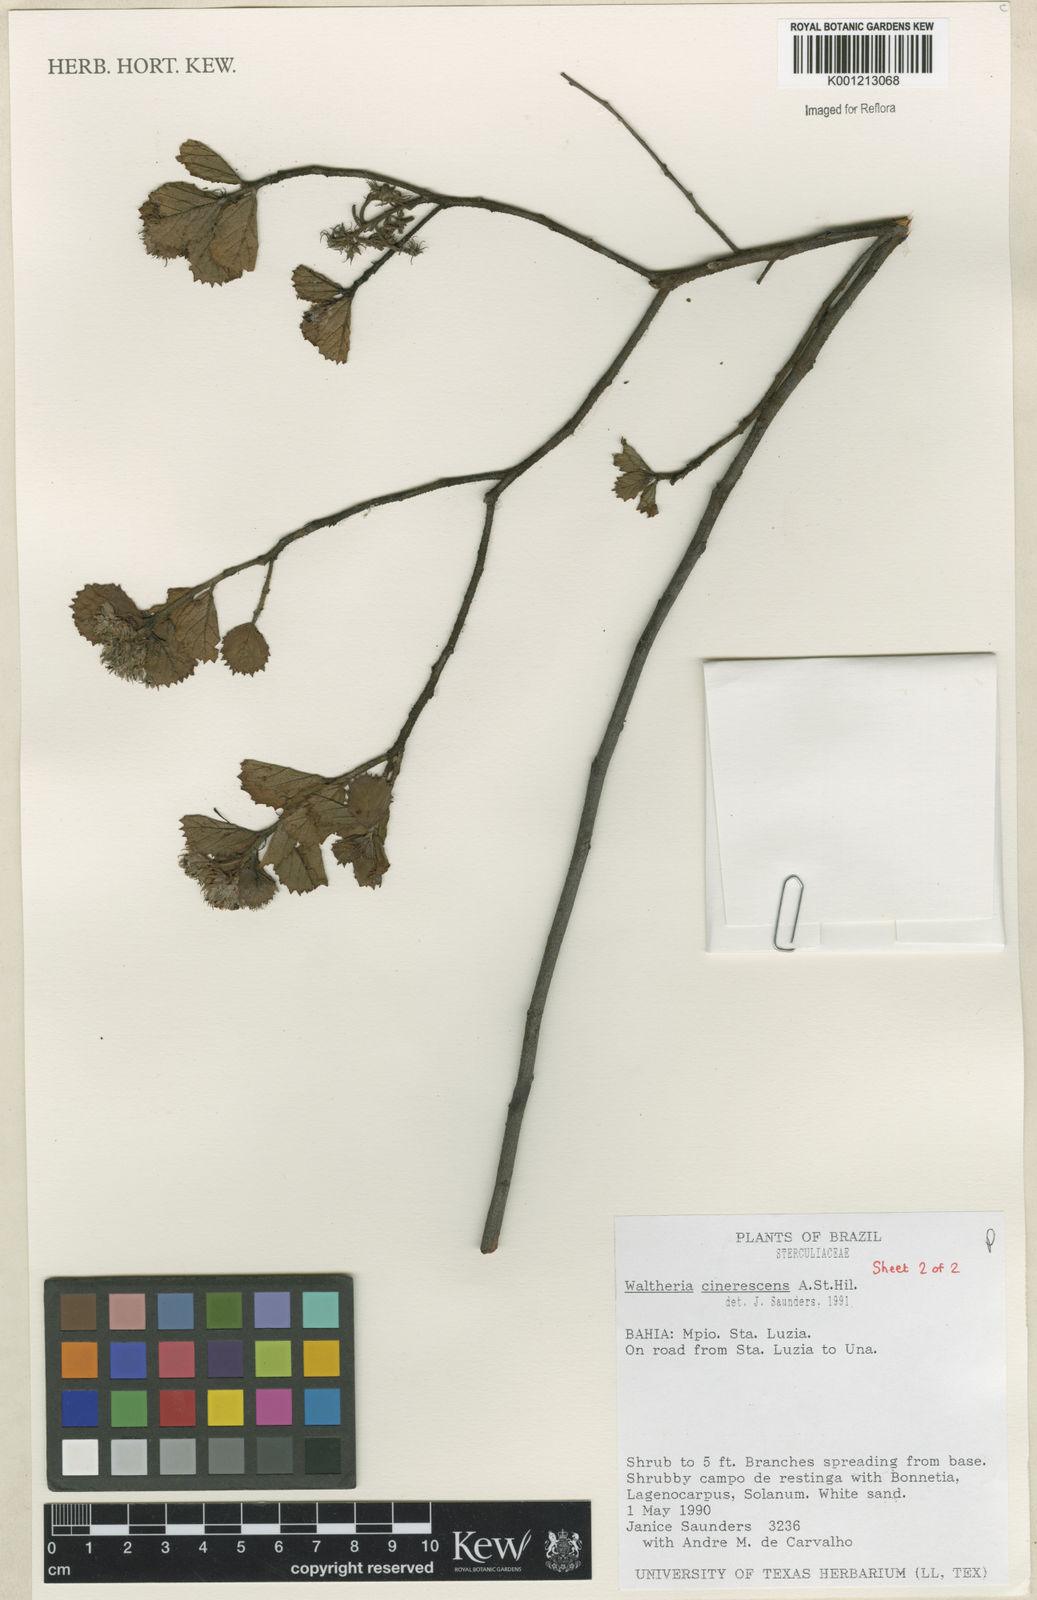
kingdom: Plantae
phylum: Tracheophyta
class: Magnoliopsida
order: Malvales
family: Malvaceae
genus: Waltheria
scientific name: Waltheria cinerescens
